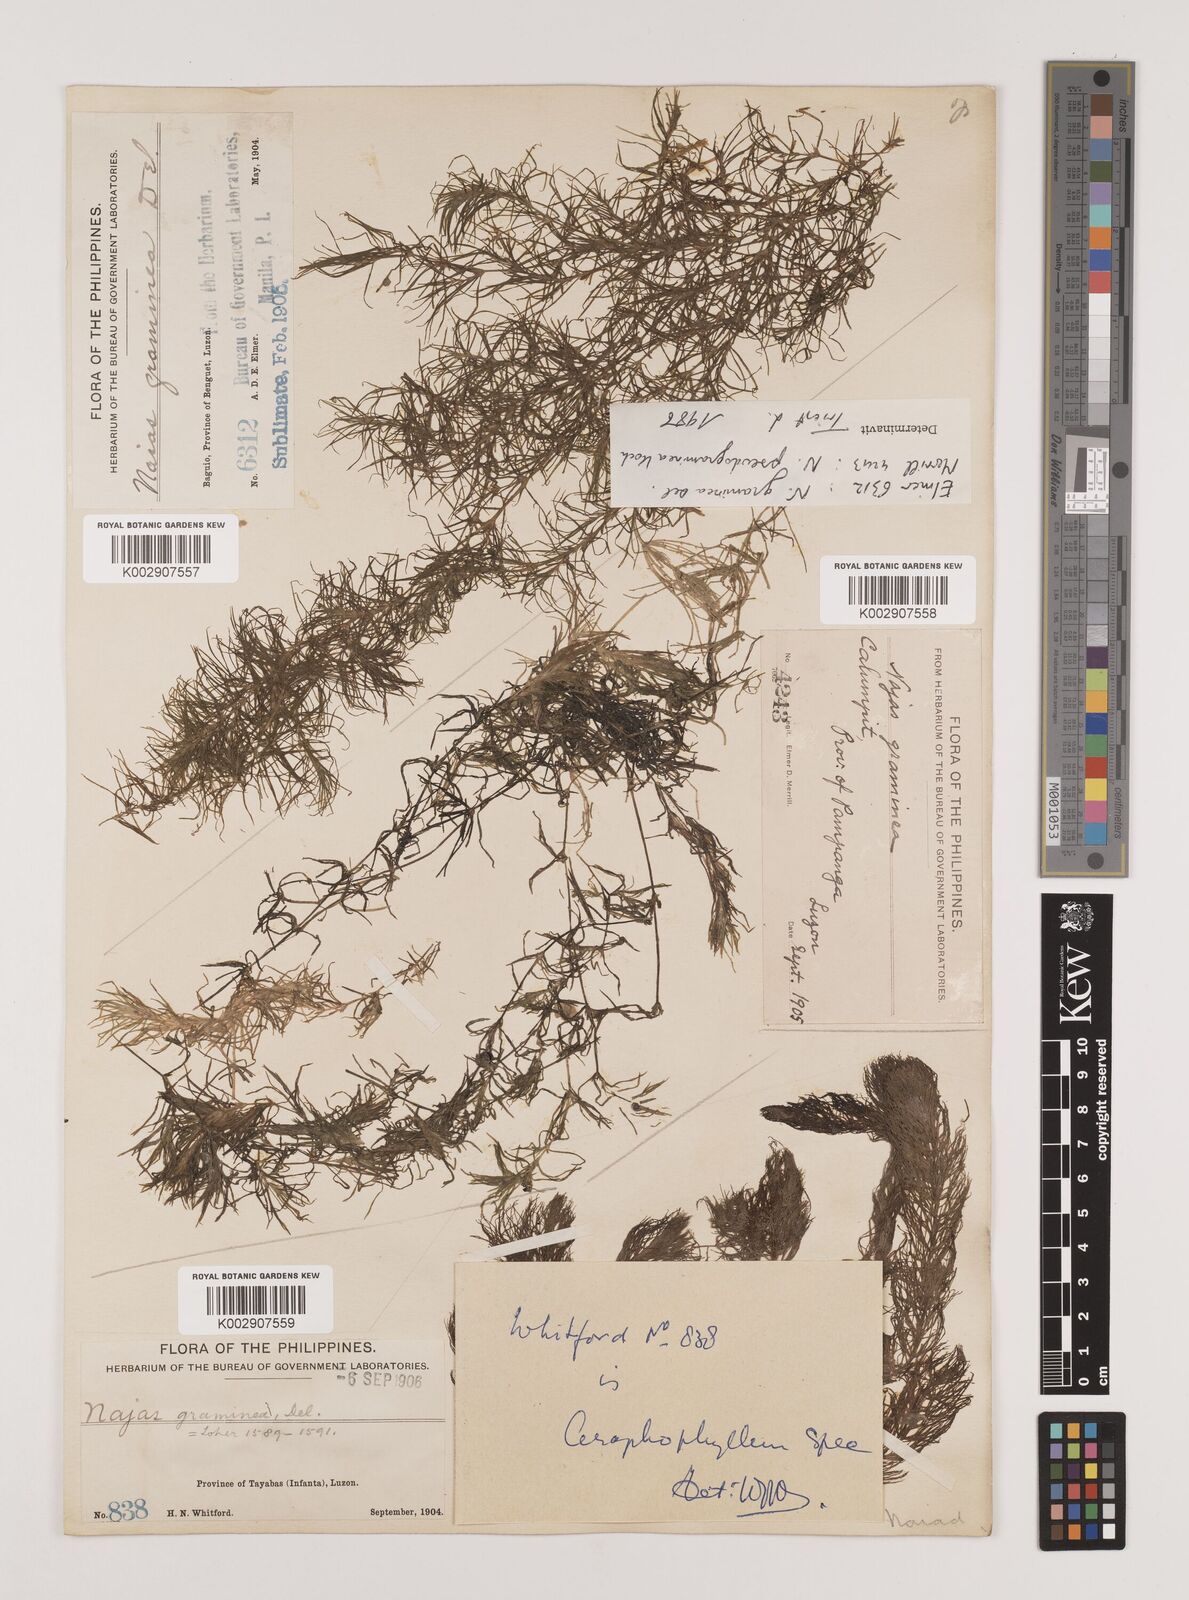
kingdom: Plantae
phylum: Tracheophyta
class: Liliopsida
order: Alismatales
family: Hydrocharitaceae
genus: Najas
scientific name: Najas tenuifolia
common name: Thin-leaved naiad
